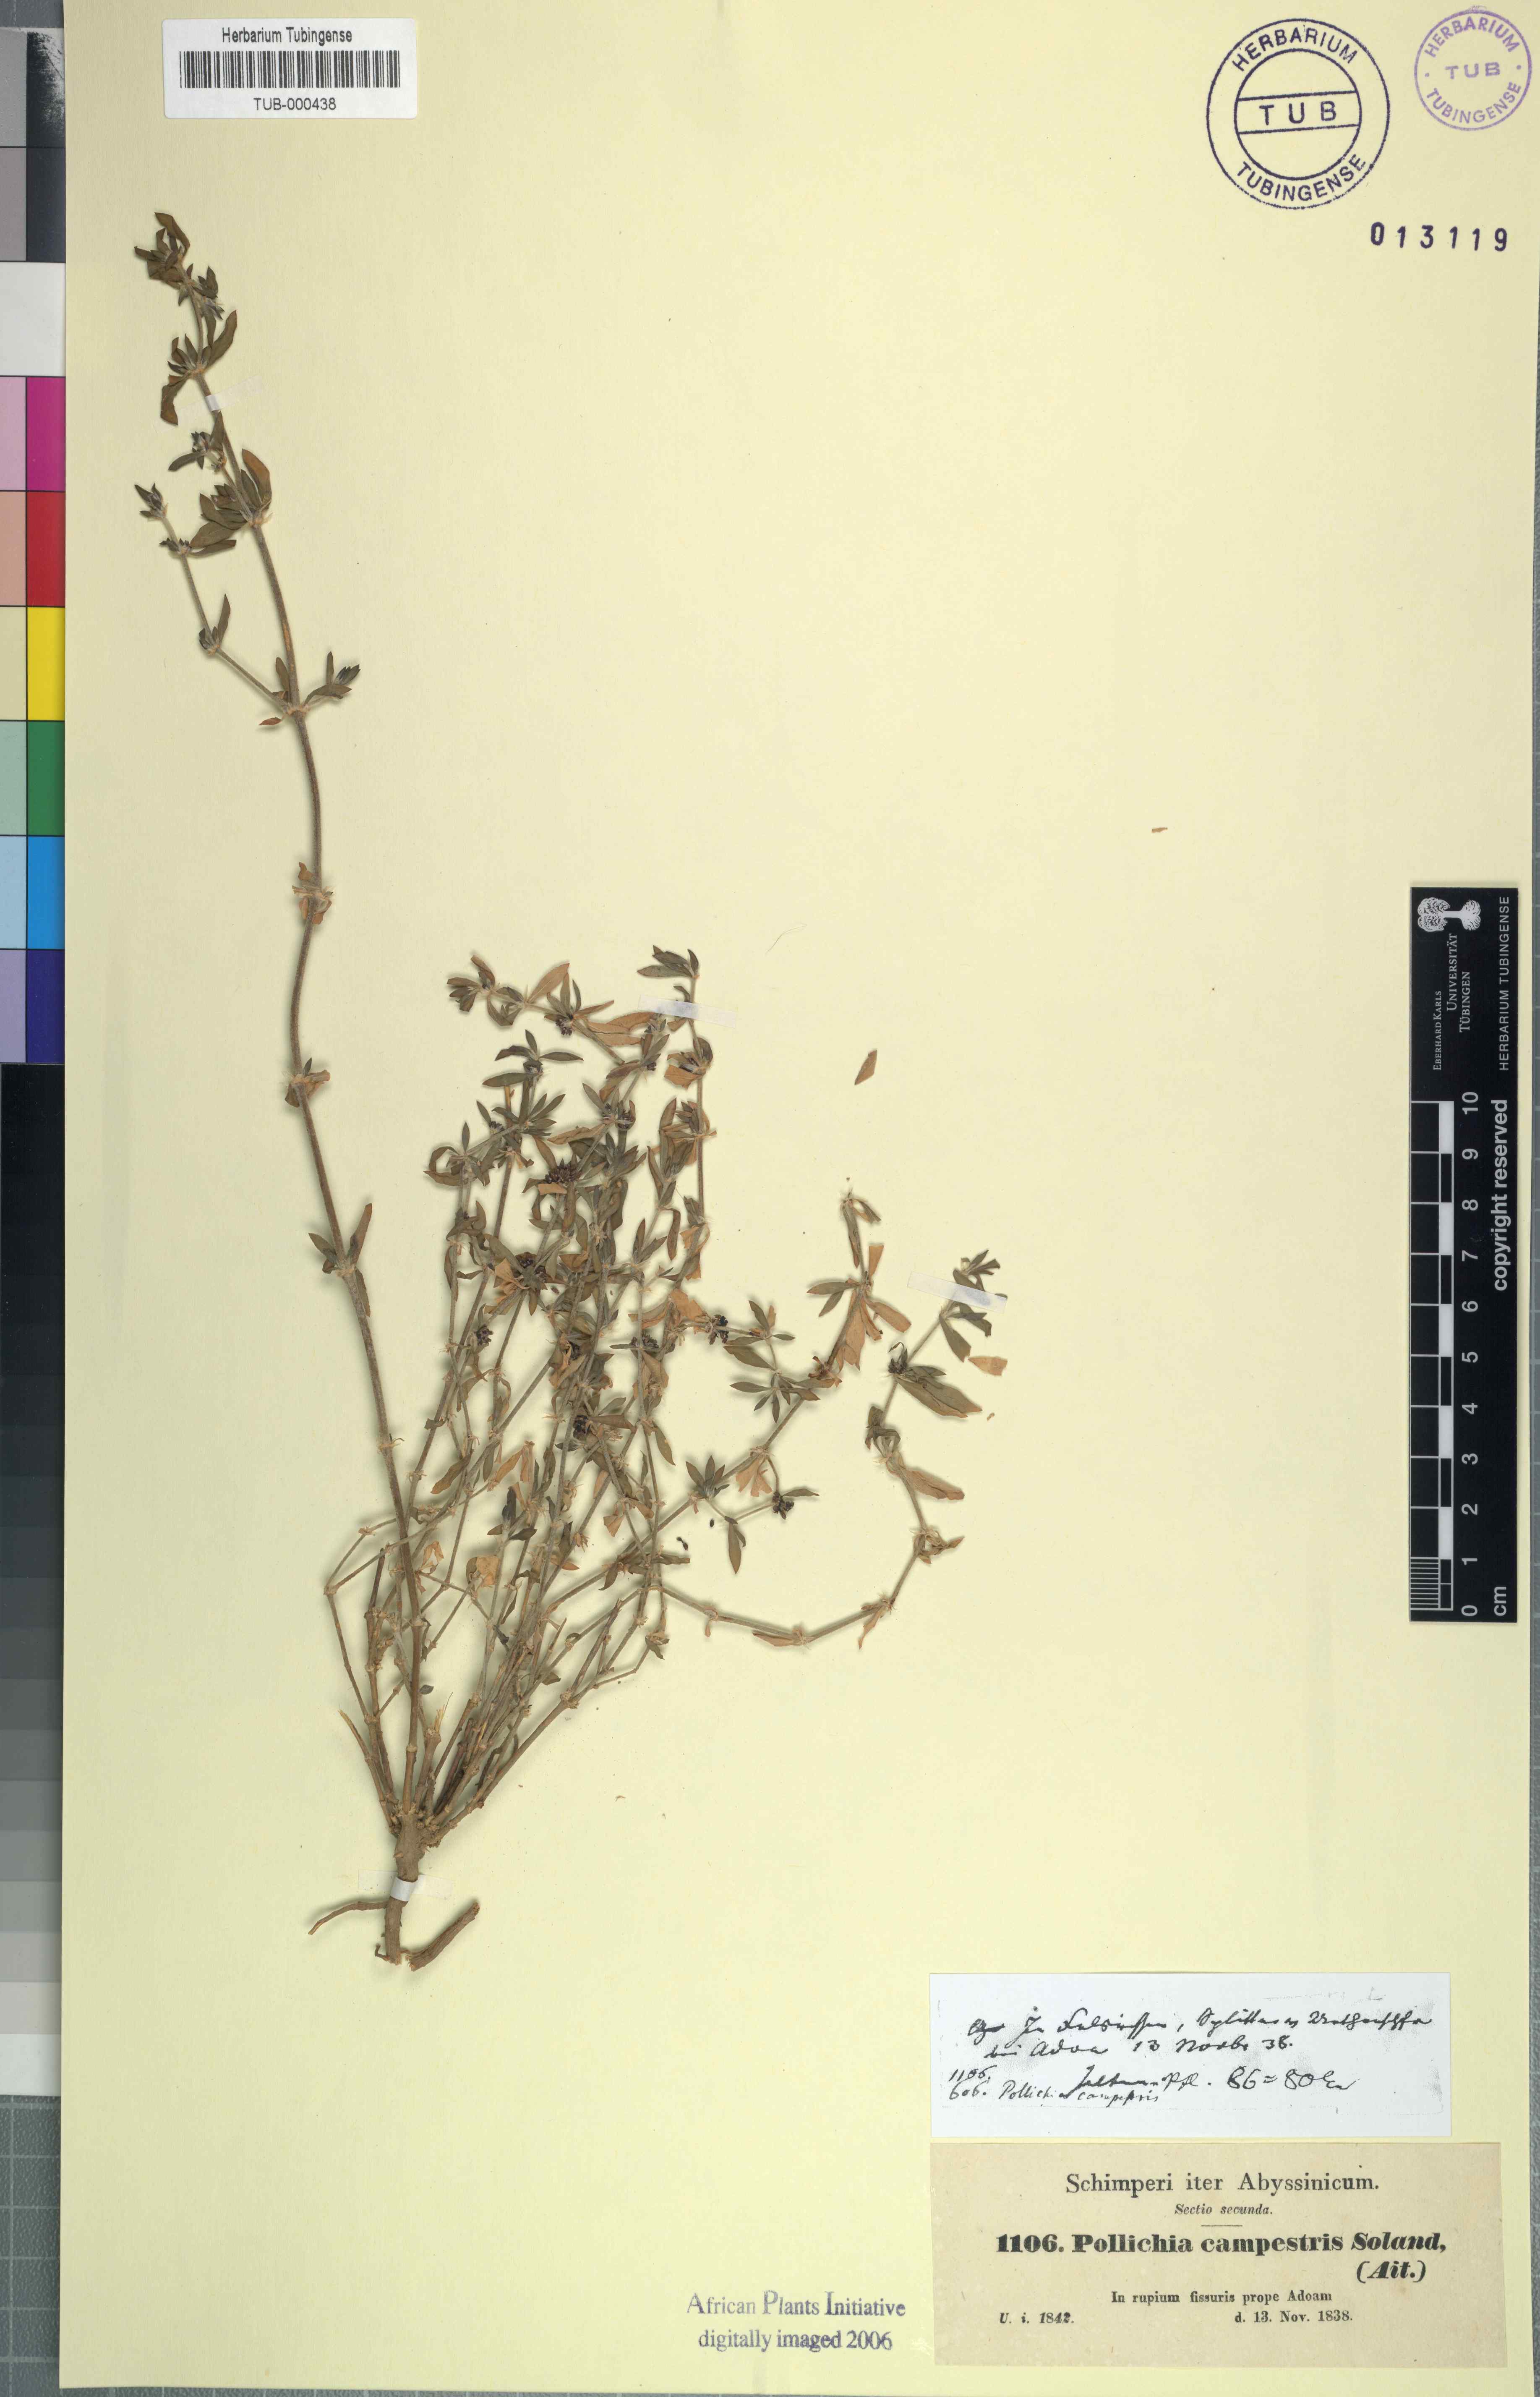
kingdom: Plantae
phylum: Tracheophyta
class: Magnoliopsida
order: Caryophyllales
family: Caryophyllaceae
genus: Pollichia
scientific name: Pollichia campestris
